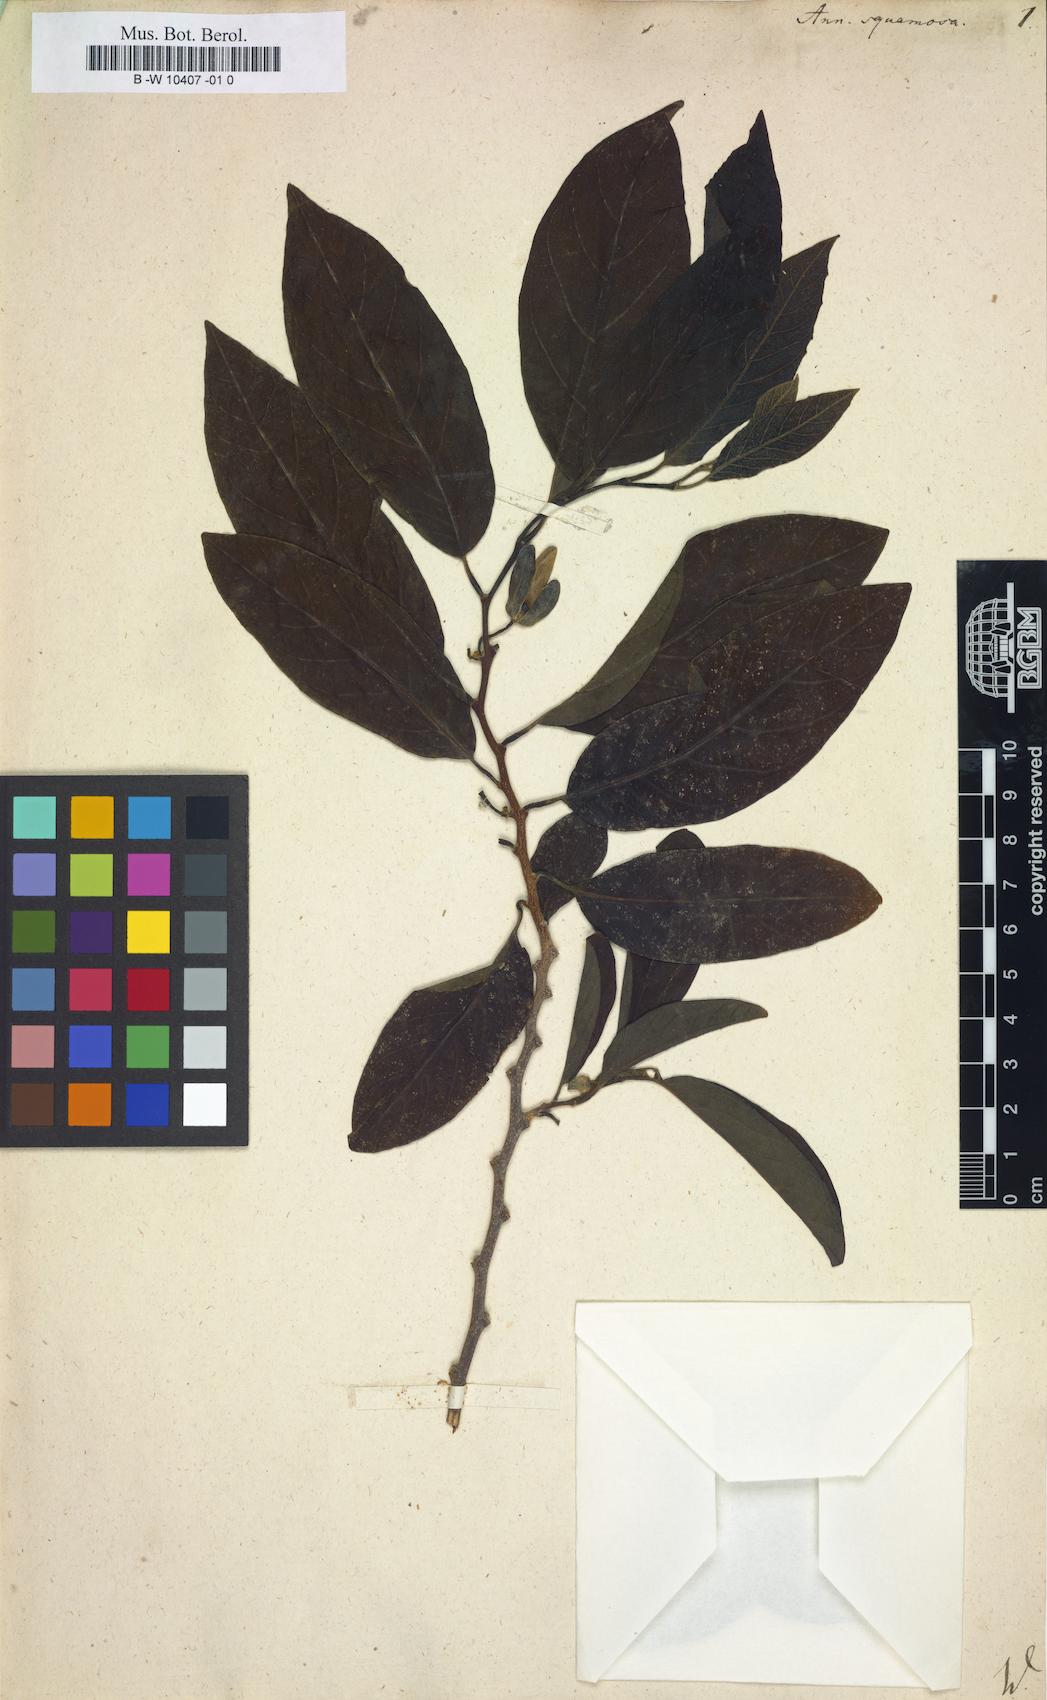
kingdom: Plantae
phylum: Tracheophyta
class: Magnoliopsida
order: Magnoliales
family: Annonaceae
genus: Annona
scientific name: Annona squamosa
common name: Custard-apple
